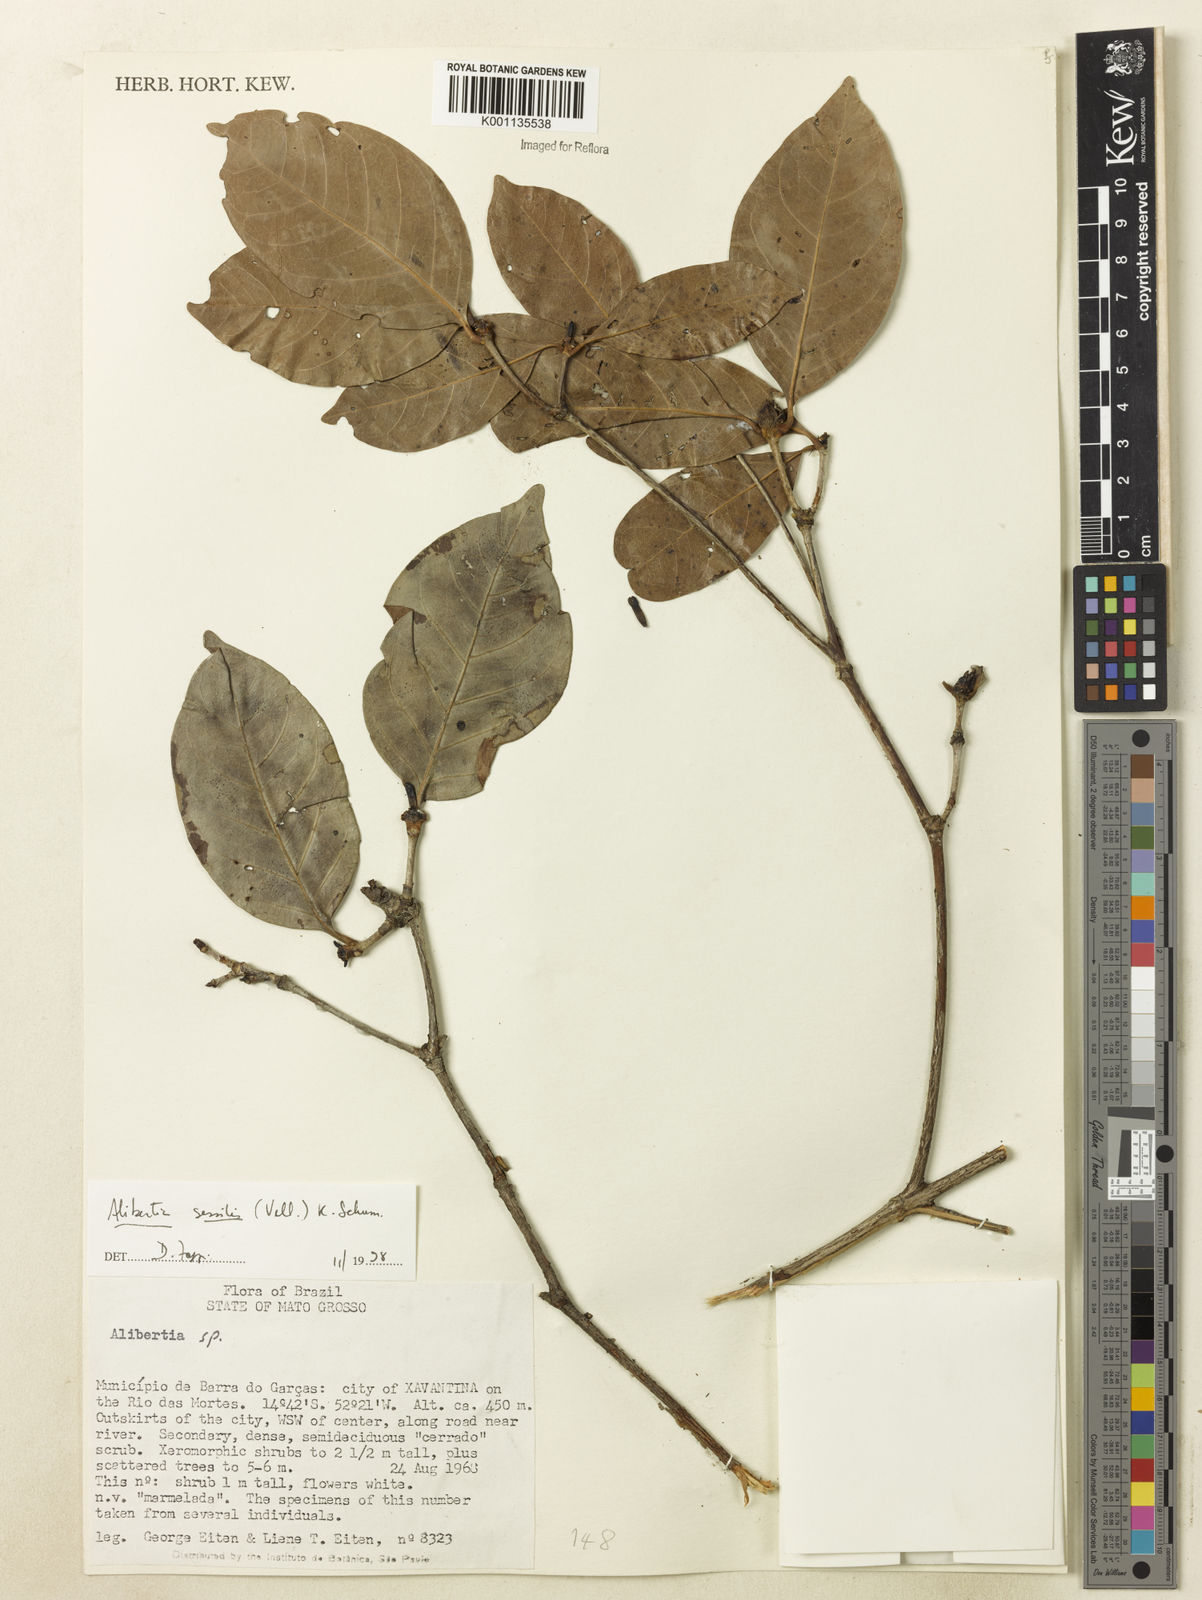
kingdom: Plantae
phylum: Tracheophyta
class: Magnoliopsida
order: Gentianales
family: Rubiaceae
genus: Cordiera
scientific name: Cordiera sessilis
